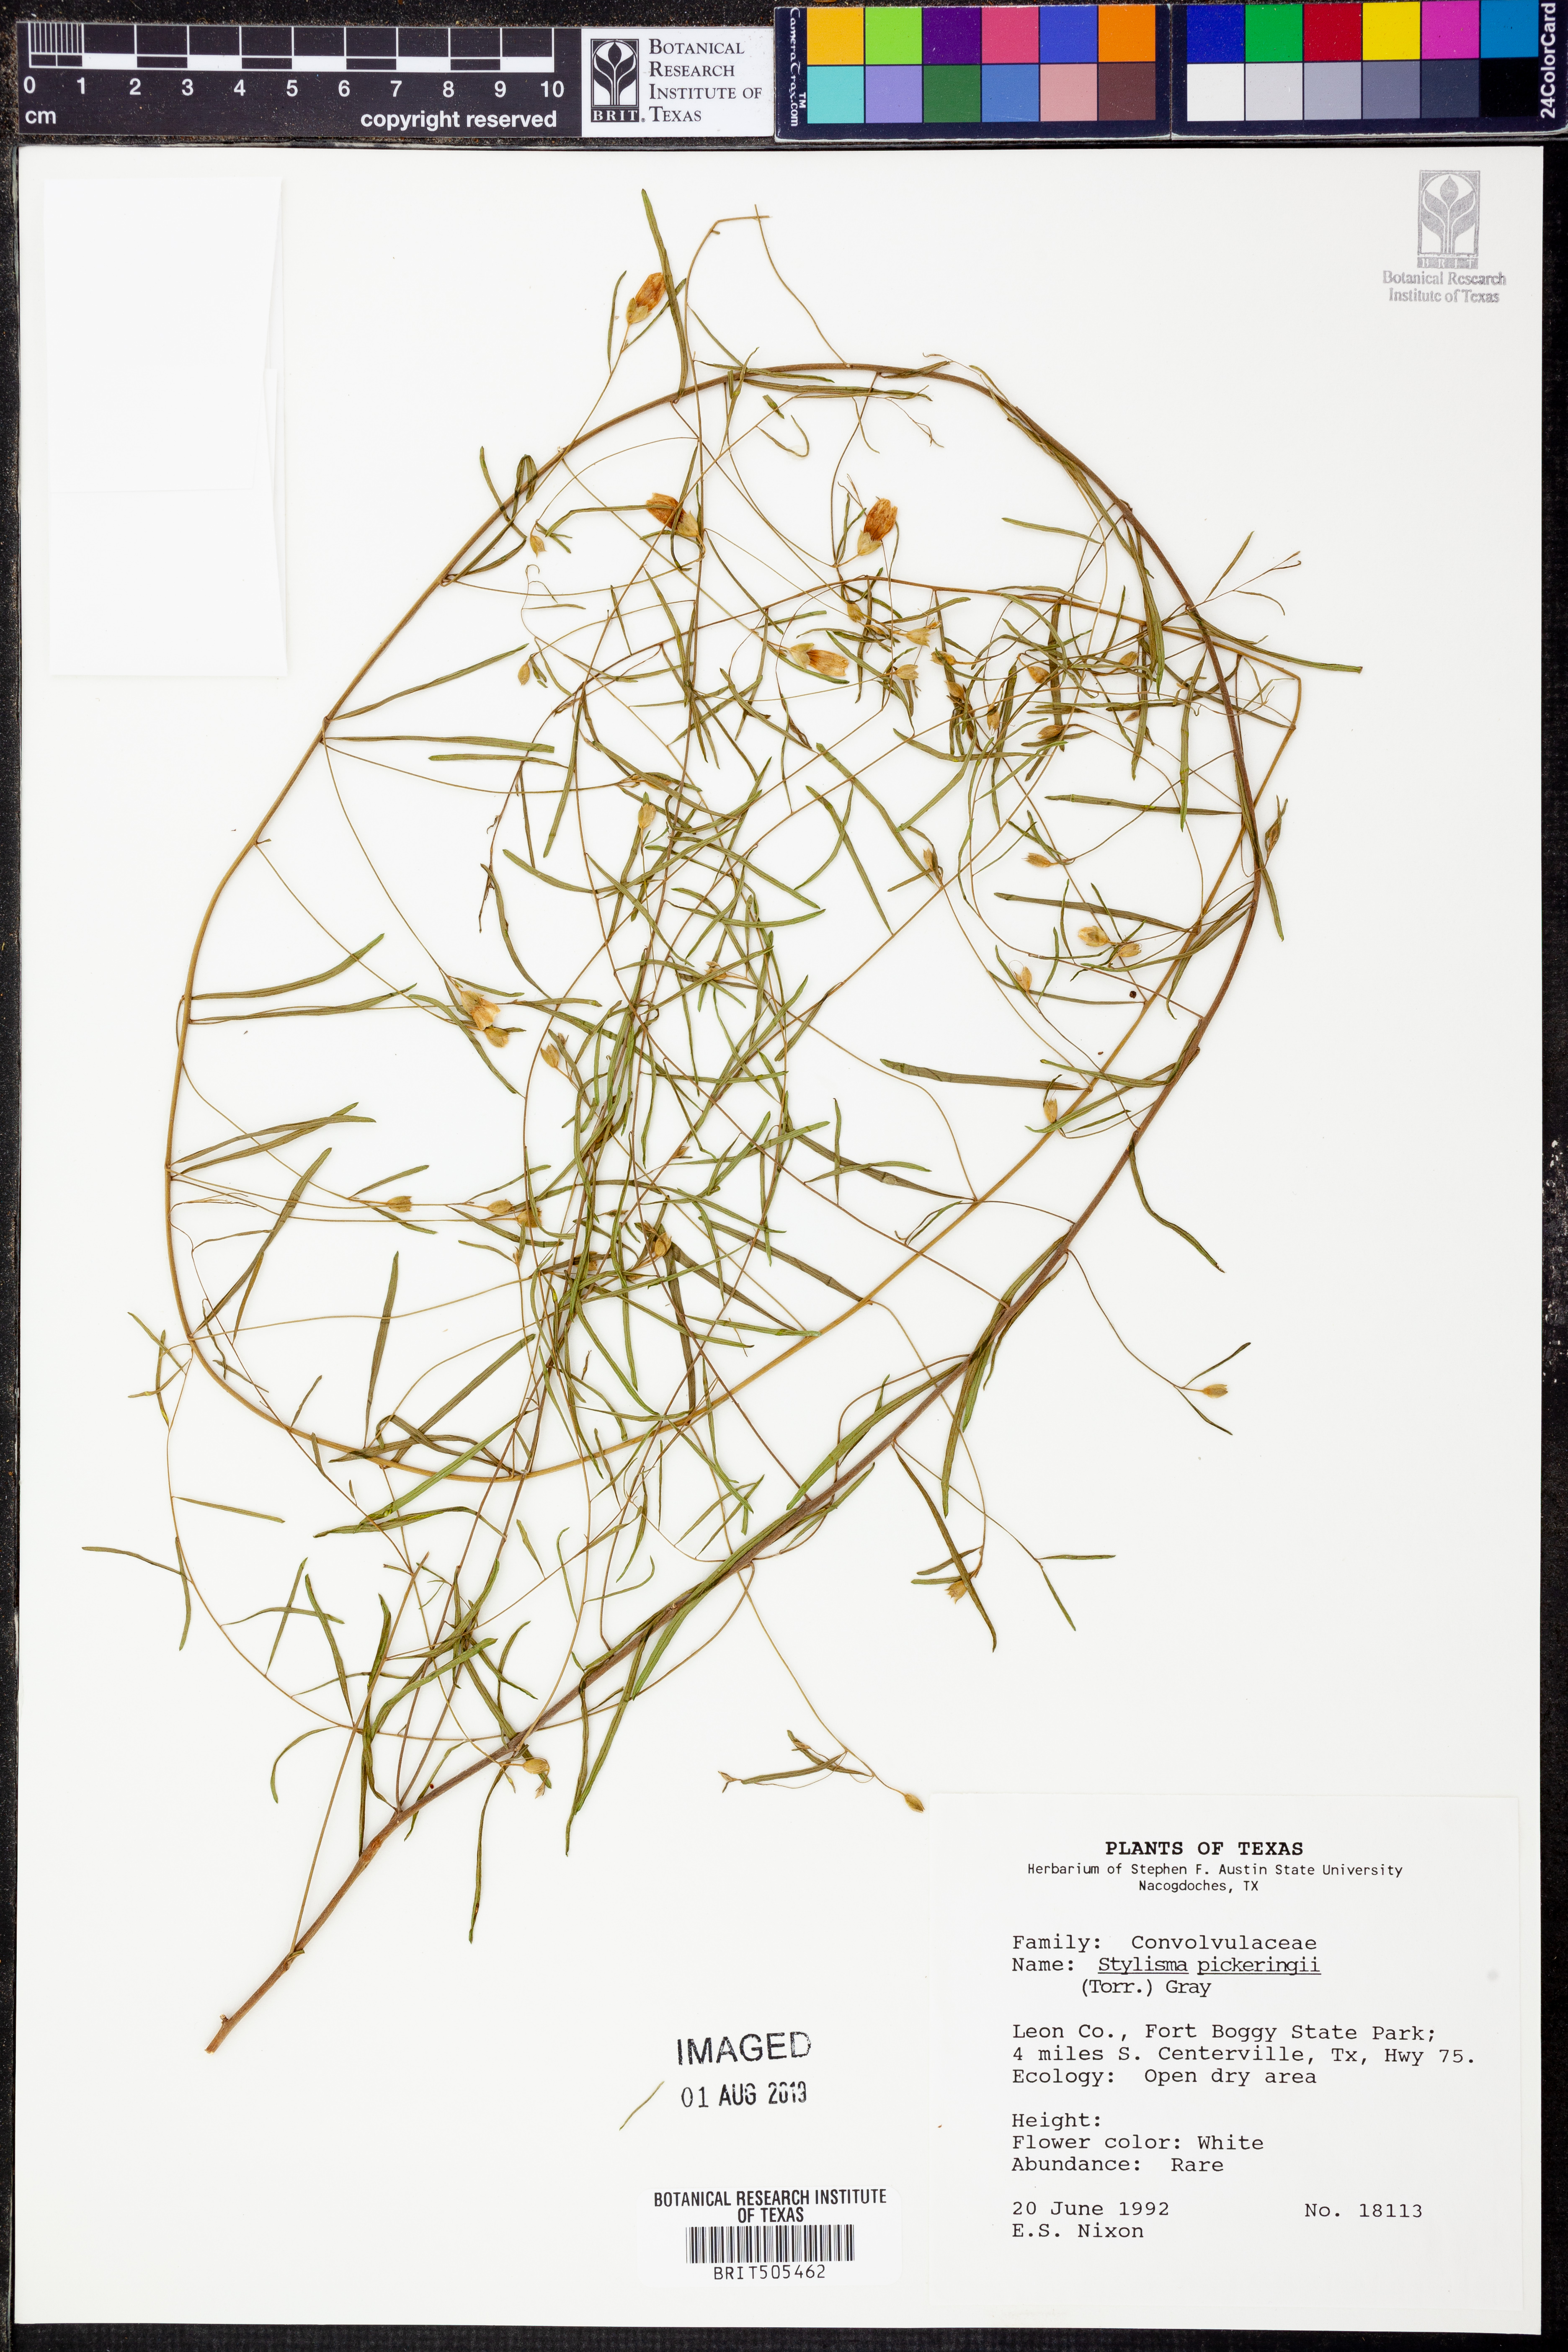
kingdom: Plantae
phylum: Tracheophyta
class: Magnoliopsida
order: Solanales
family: Convolvulaceae
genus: Stylisma
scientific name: Stylisma pickeringii
